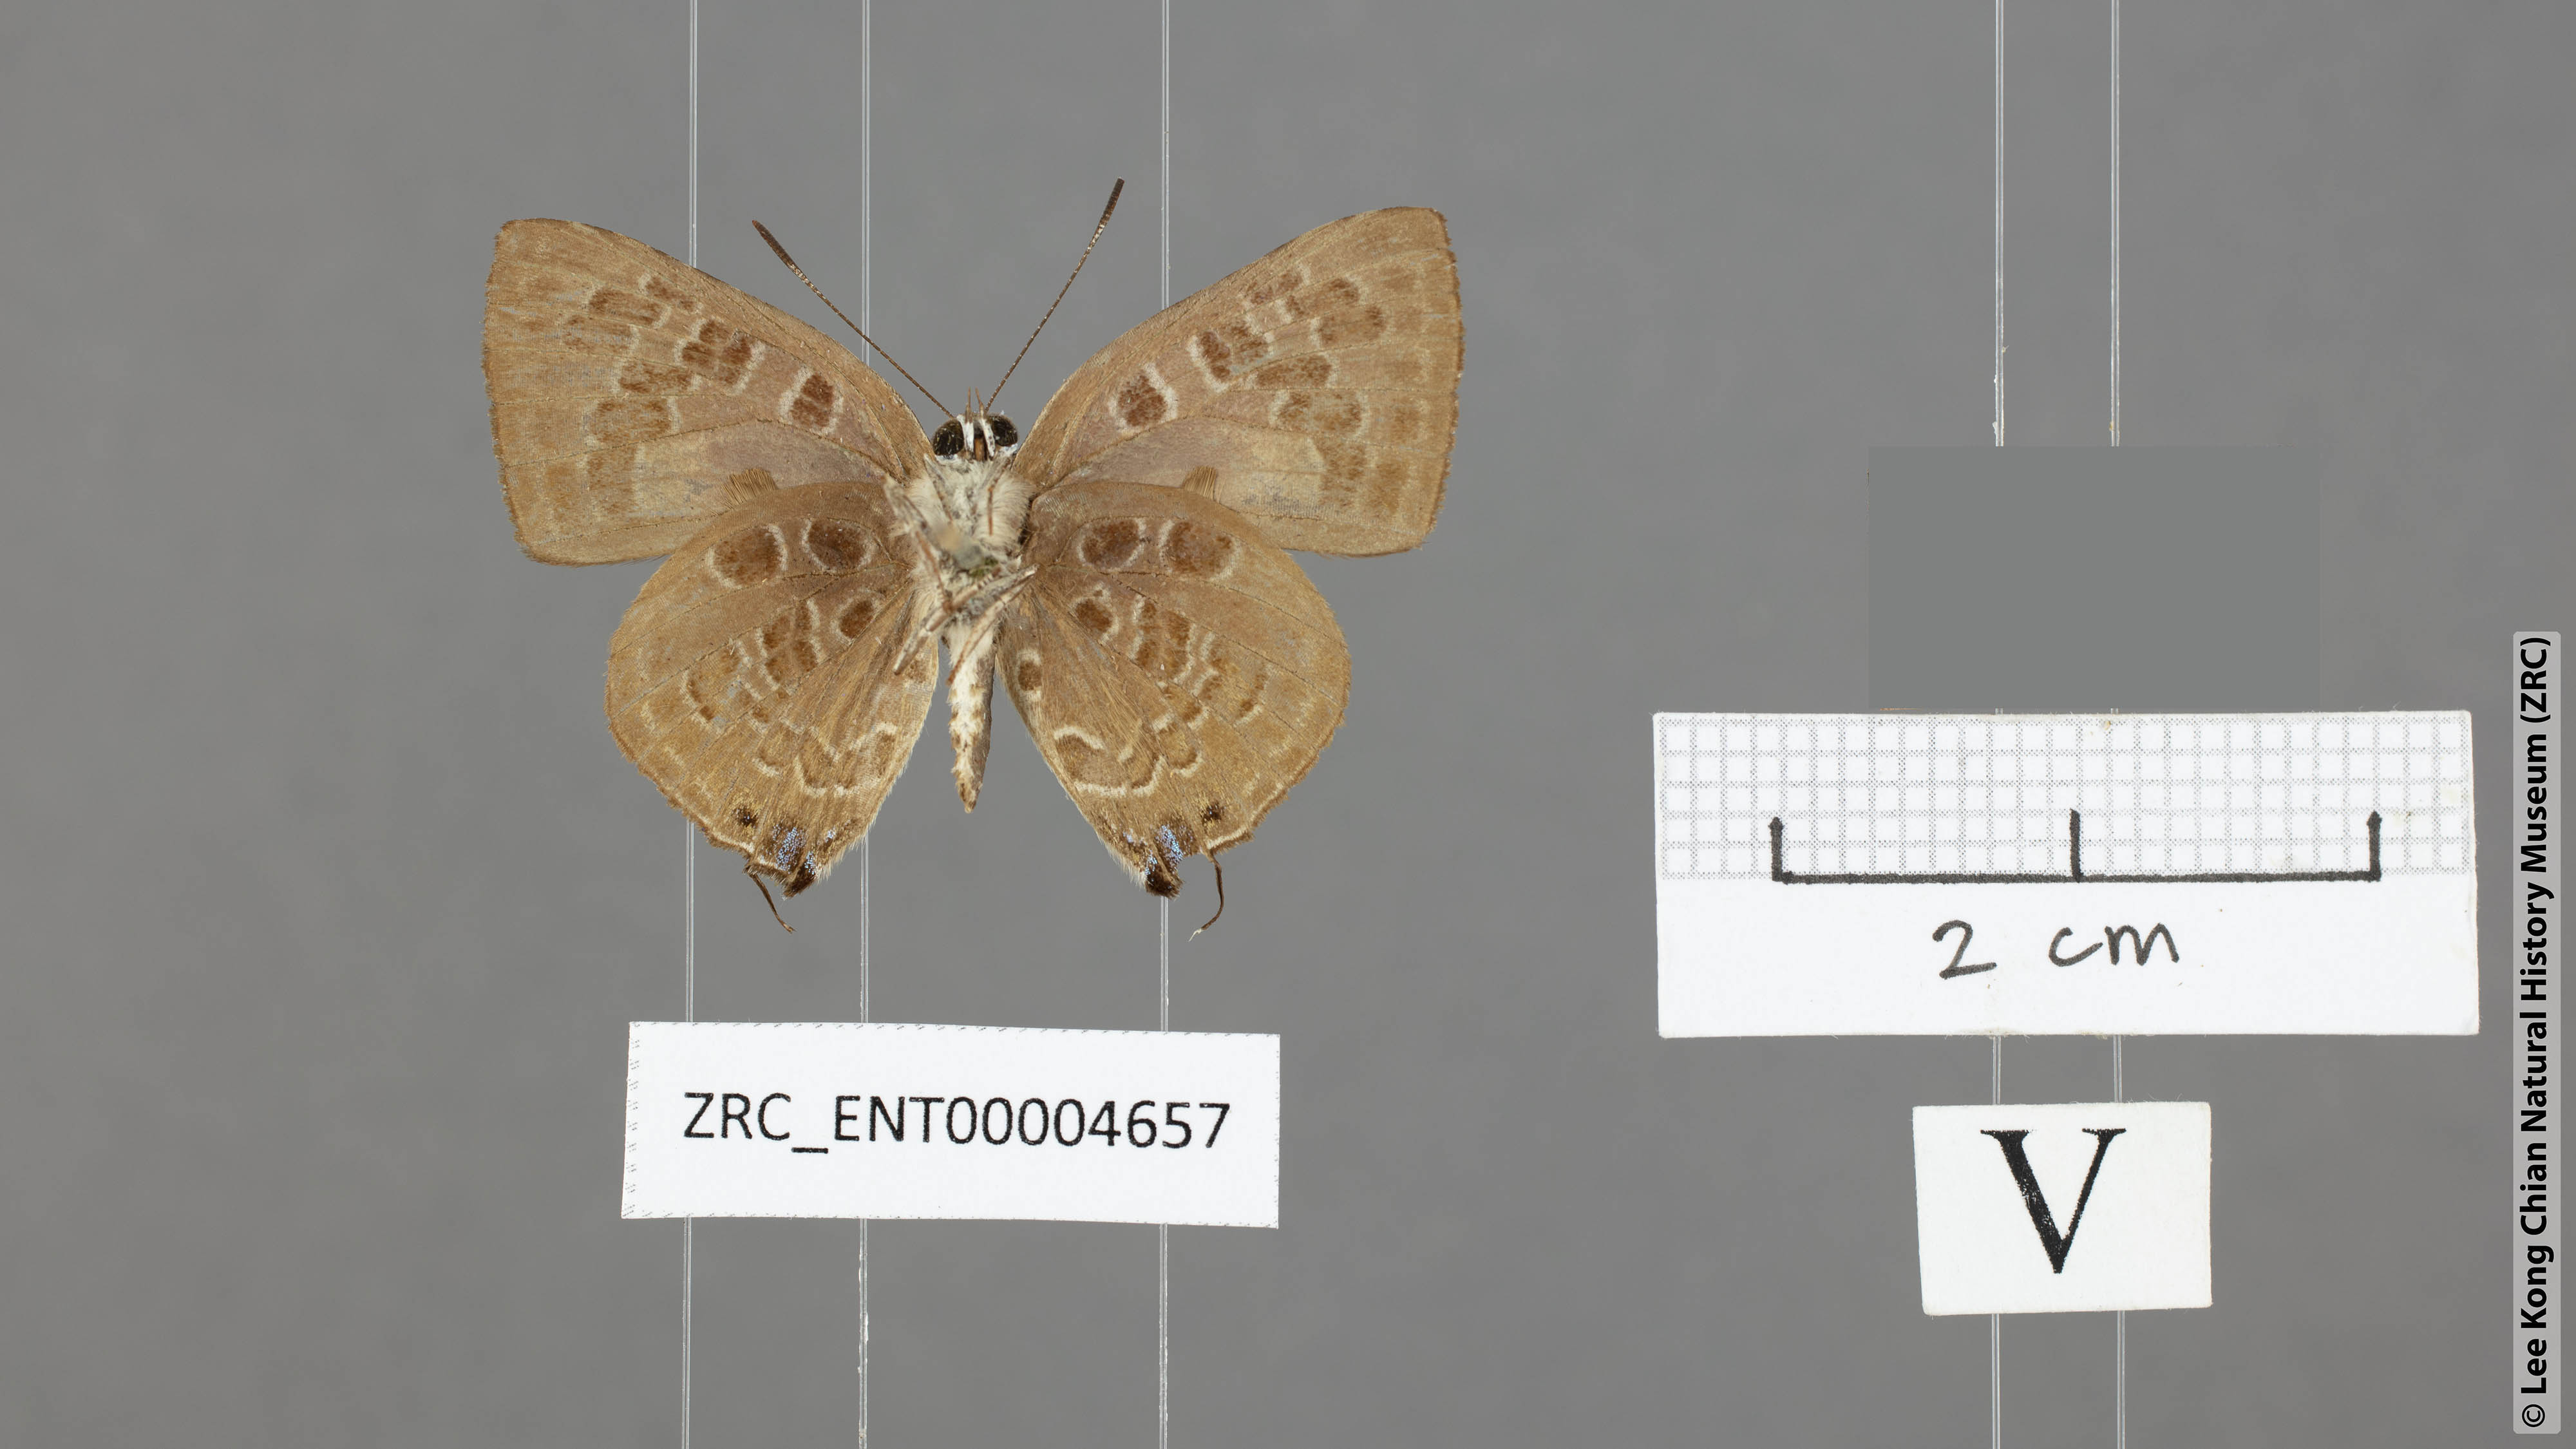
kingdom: Animalia
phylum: Arthropoda
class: Insecta
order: Lepidoptera
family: Lycaenidae
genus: Deudorix
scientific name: Deudorix
